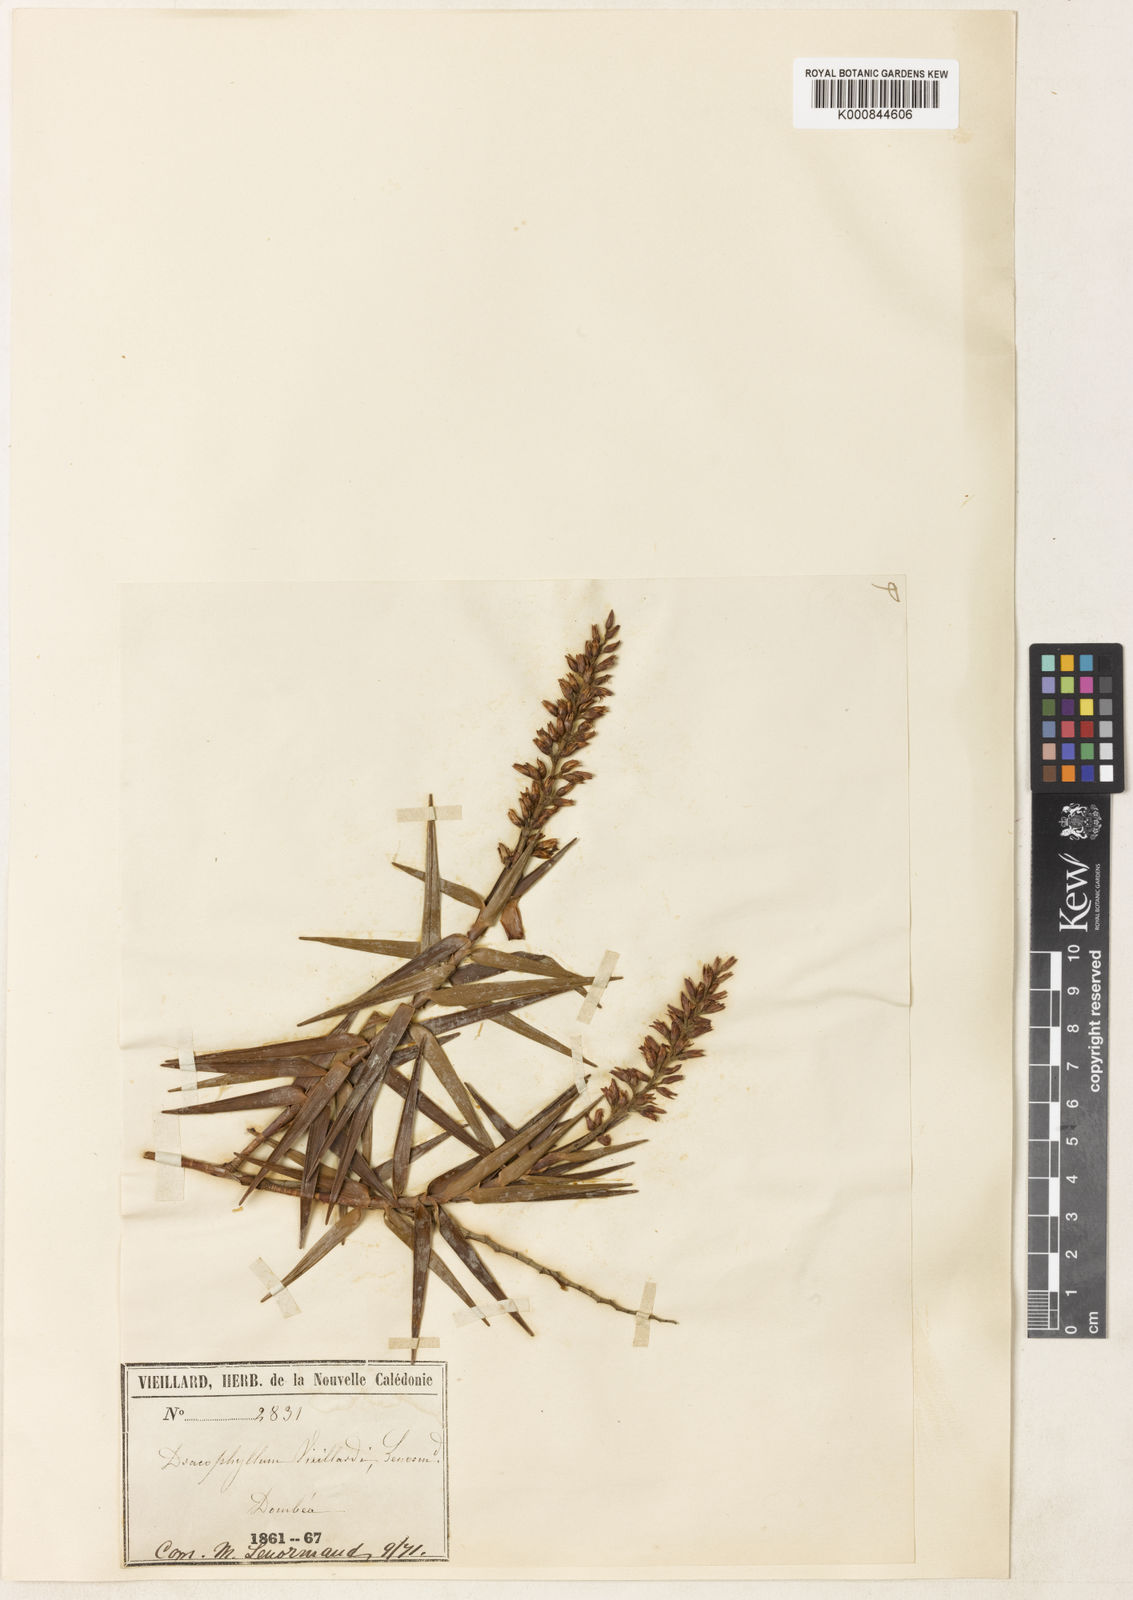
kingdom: Plantae
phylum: Tracheophyta
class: Magnoliopsida
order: Ericales
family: Ericaceae
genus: Dracophyllum
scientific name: Dracophyllum ramosum
